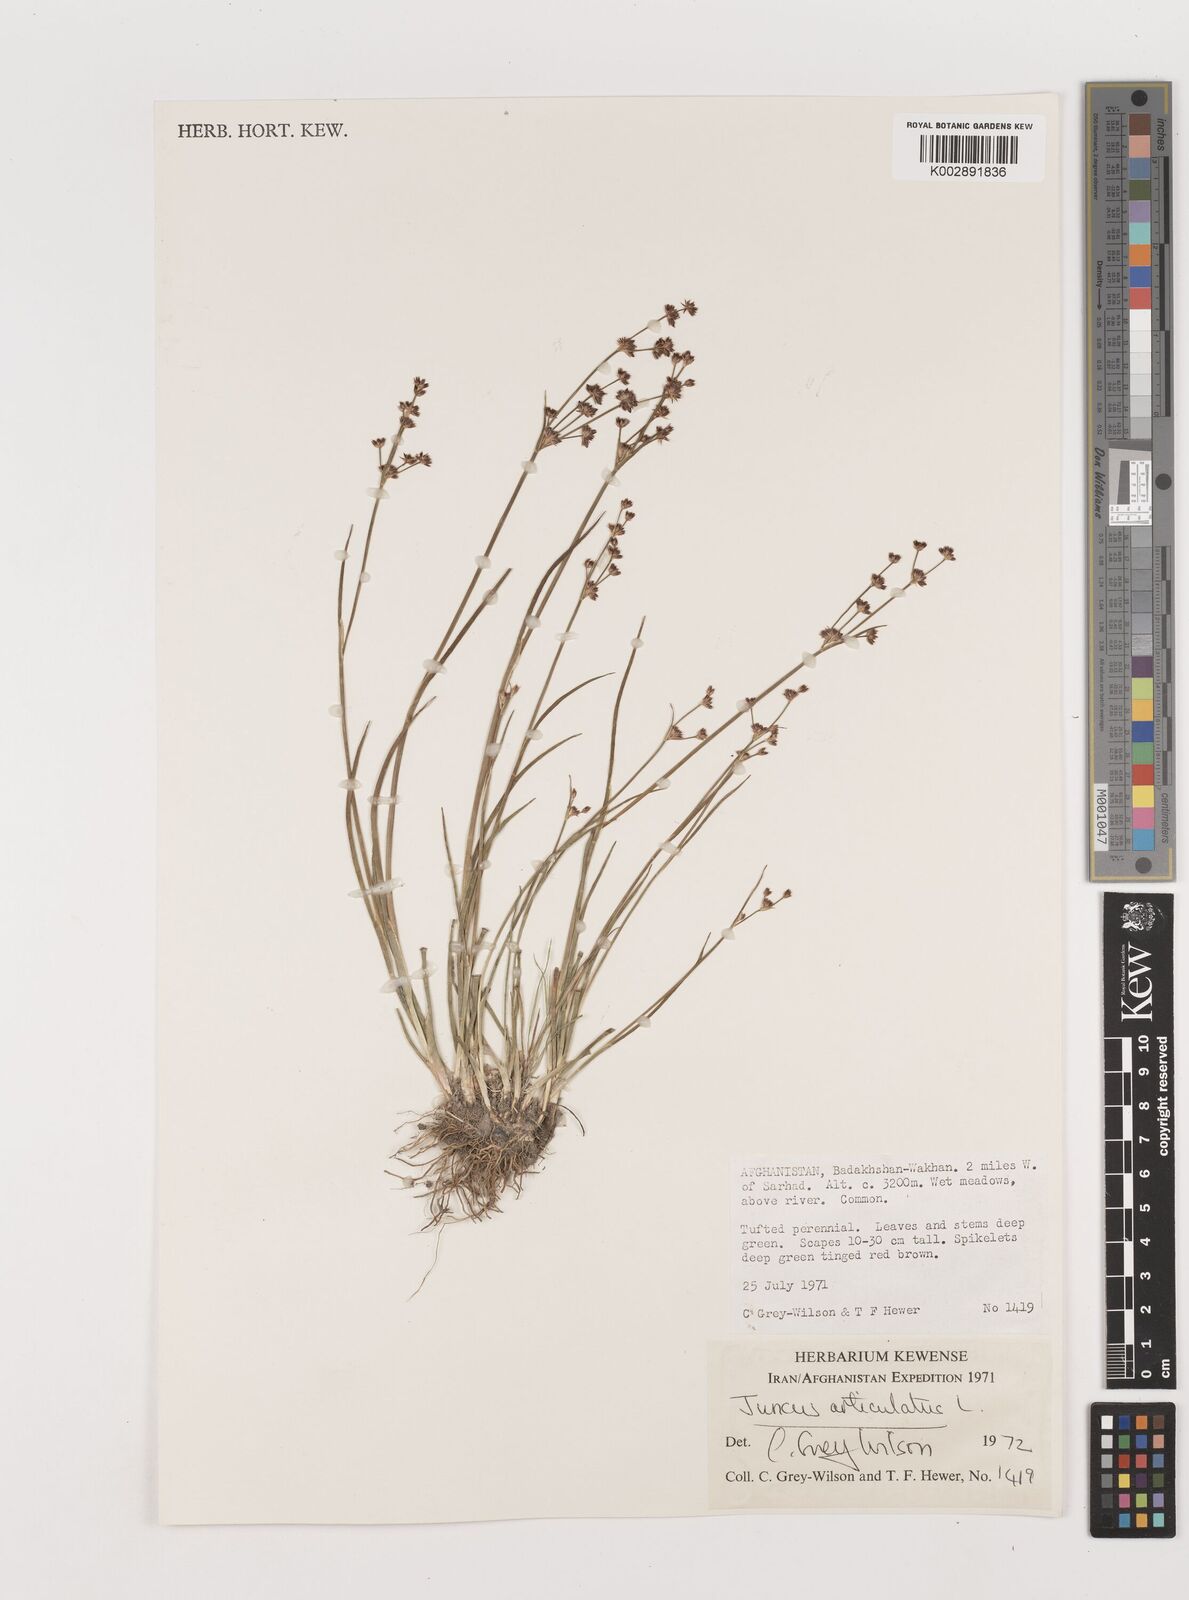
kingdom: Plantae
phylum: Tracheophyta
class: Liliopsida
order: Poales
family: Juncaceae
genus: Juncus
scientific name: Juncus articulatus
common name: Jointed rush
